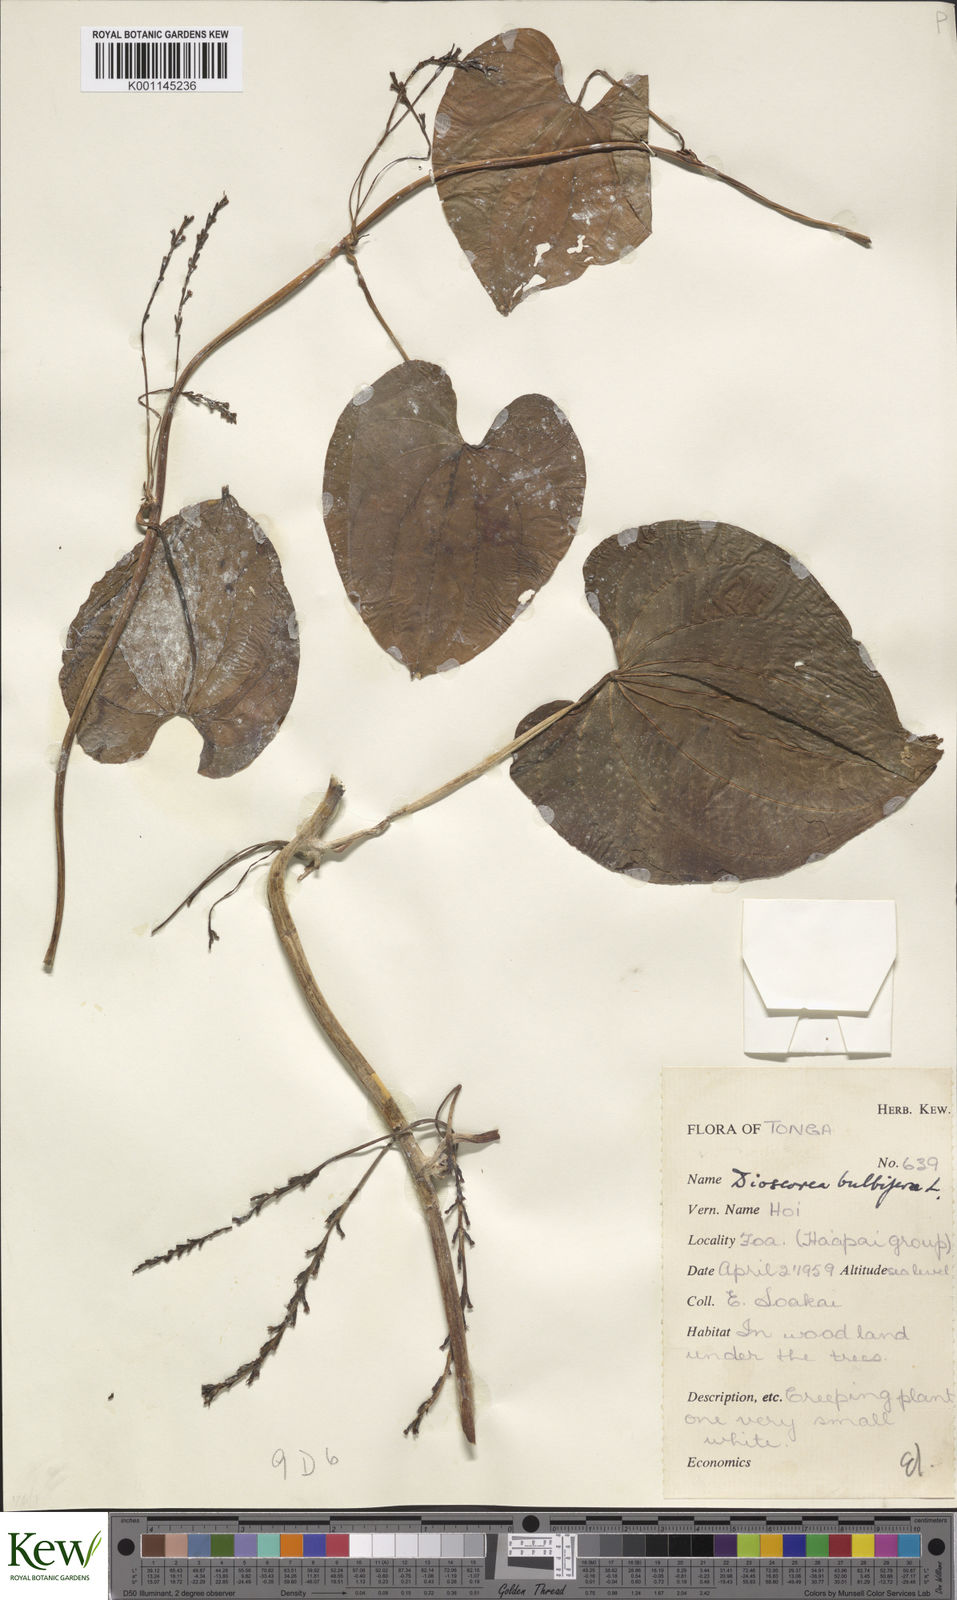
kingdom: Plantae
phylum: Tracheophyta
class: Liliopsida
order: Dioscoreales
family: Dioscoreaceae
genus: Dioscorea
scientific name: Dioscorea bulbifera
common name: Air yam
